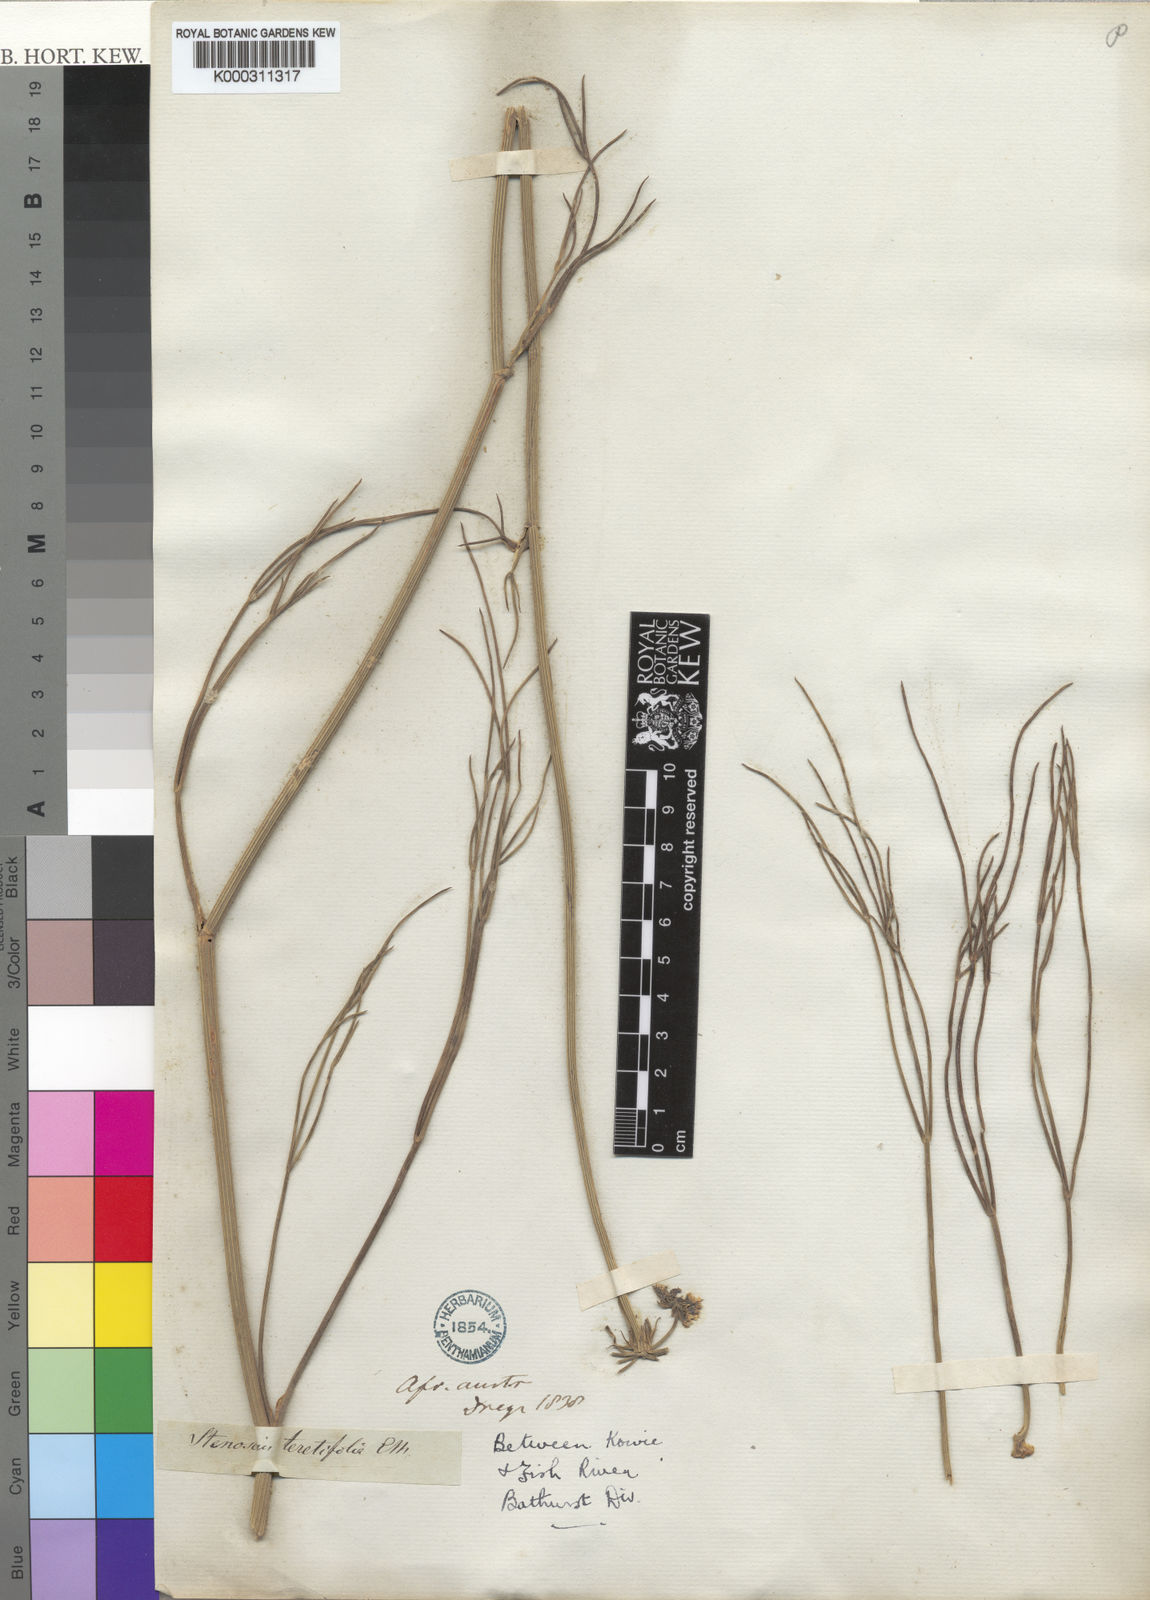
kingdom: Plantae
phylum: Tracheophyta
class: Magnoliopsida
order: Apiales
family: Apiaceae
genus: Stenosemis
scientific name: Stenosemis caffra
